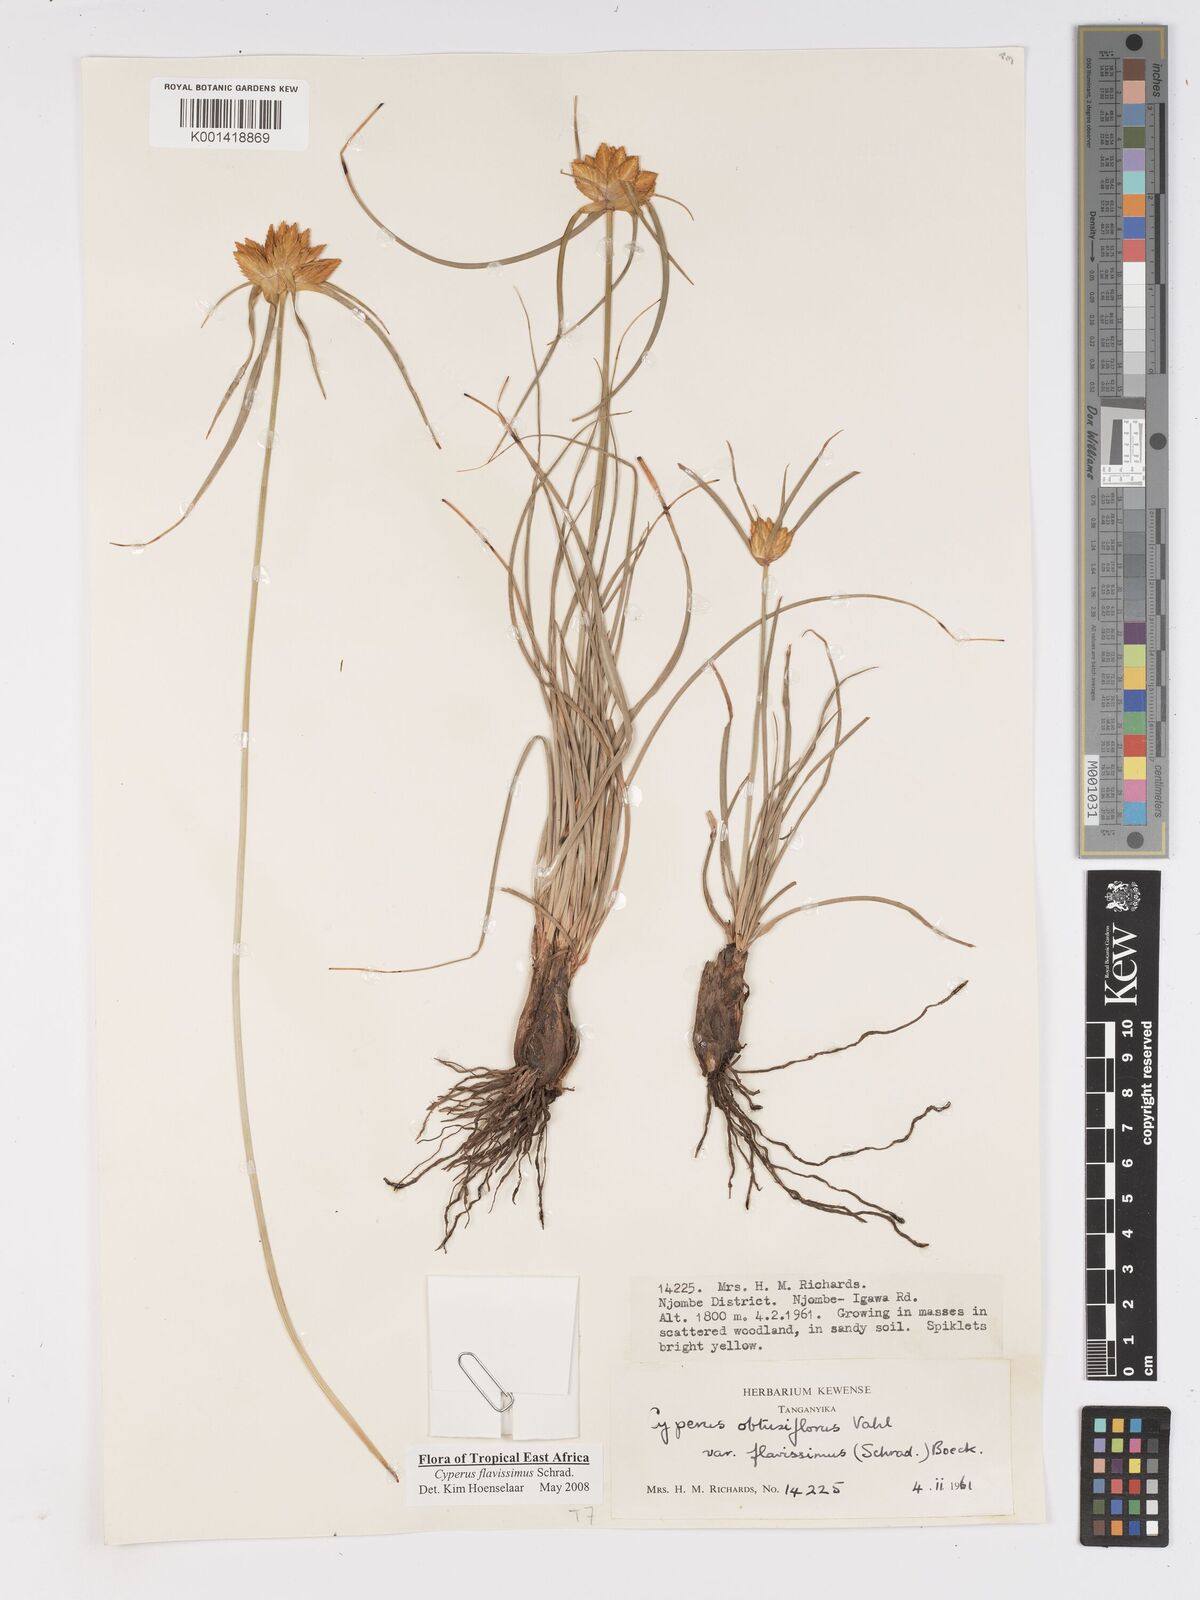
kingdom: Plantae
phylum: Tracheophyta
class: Liliopsida
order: Poales
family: Cyperaceae
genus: Cyperus
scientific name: Cyperus sphaerocephalus
